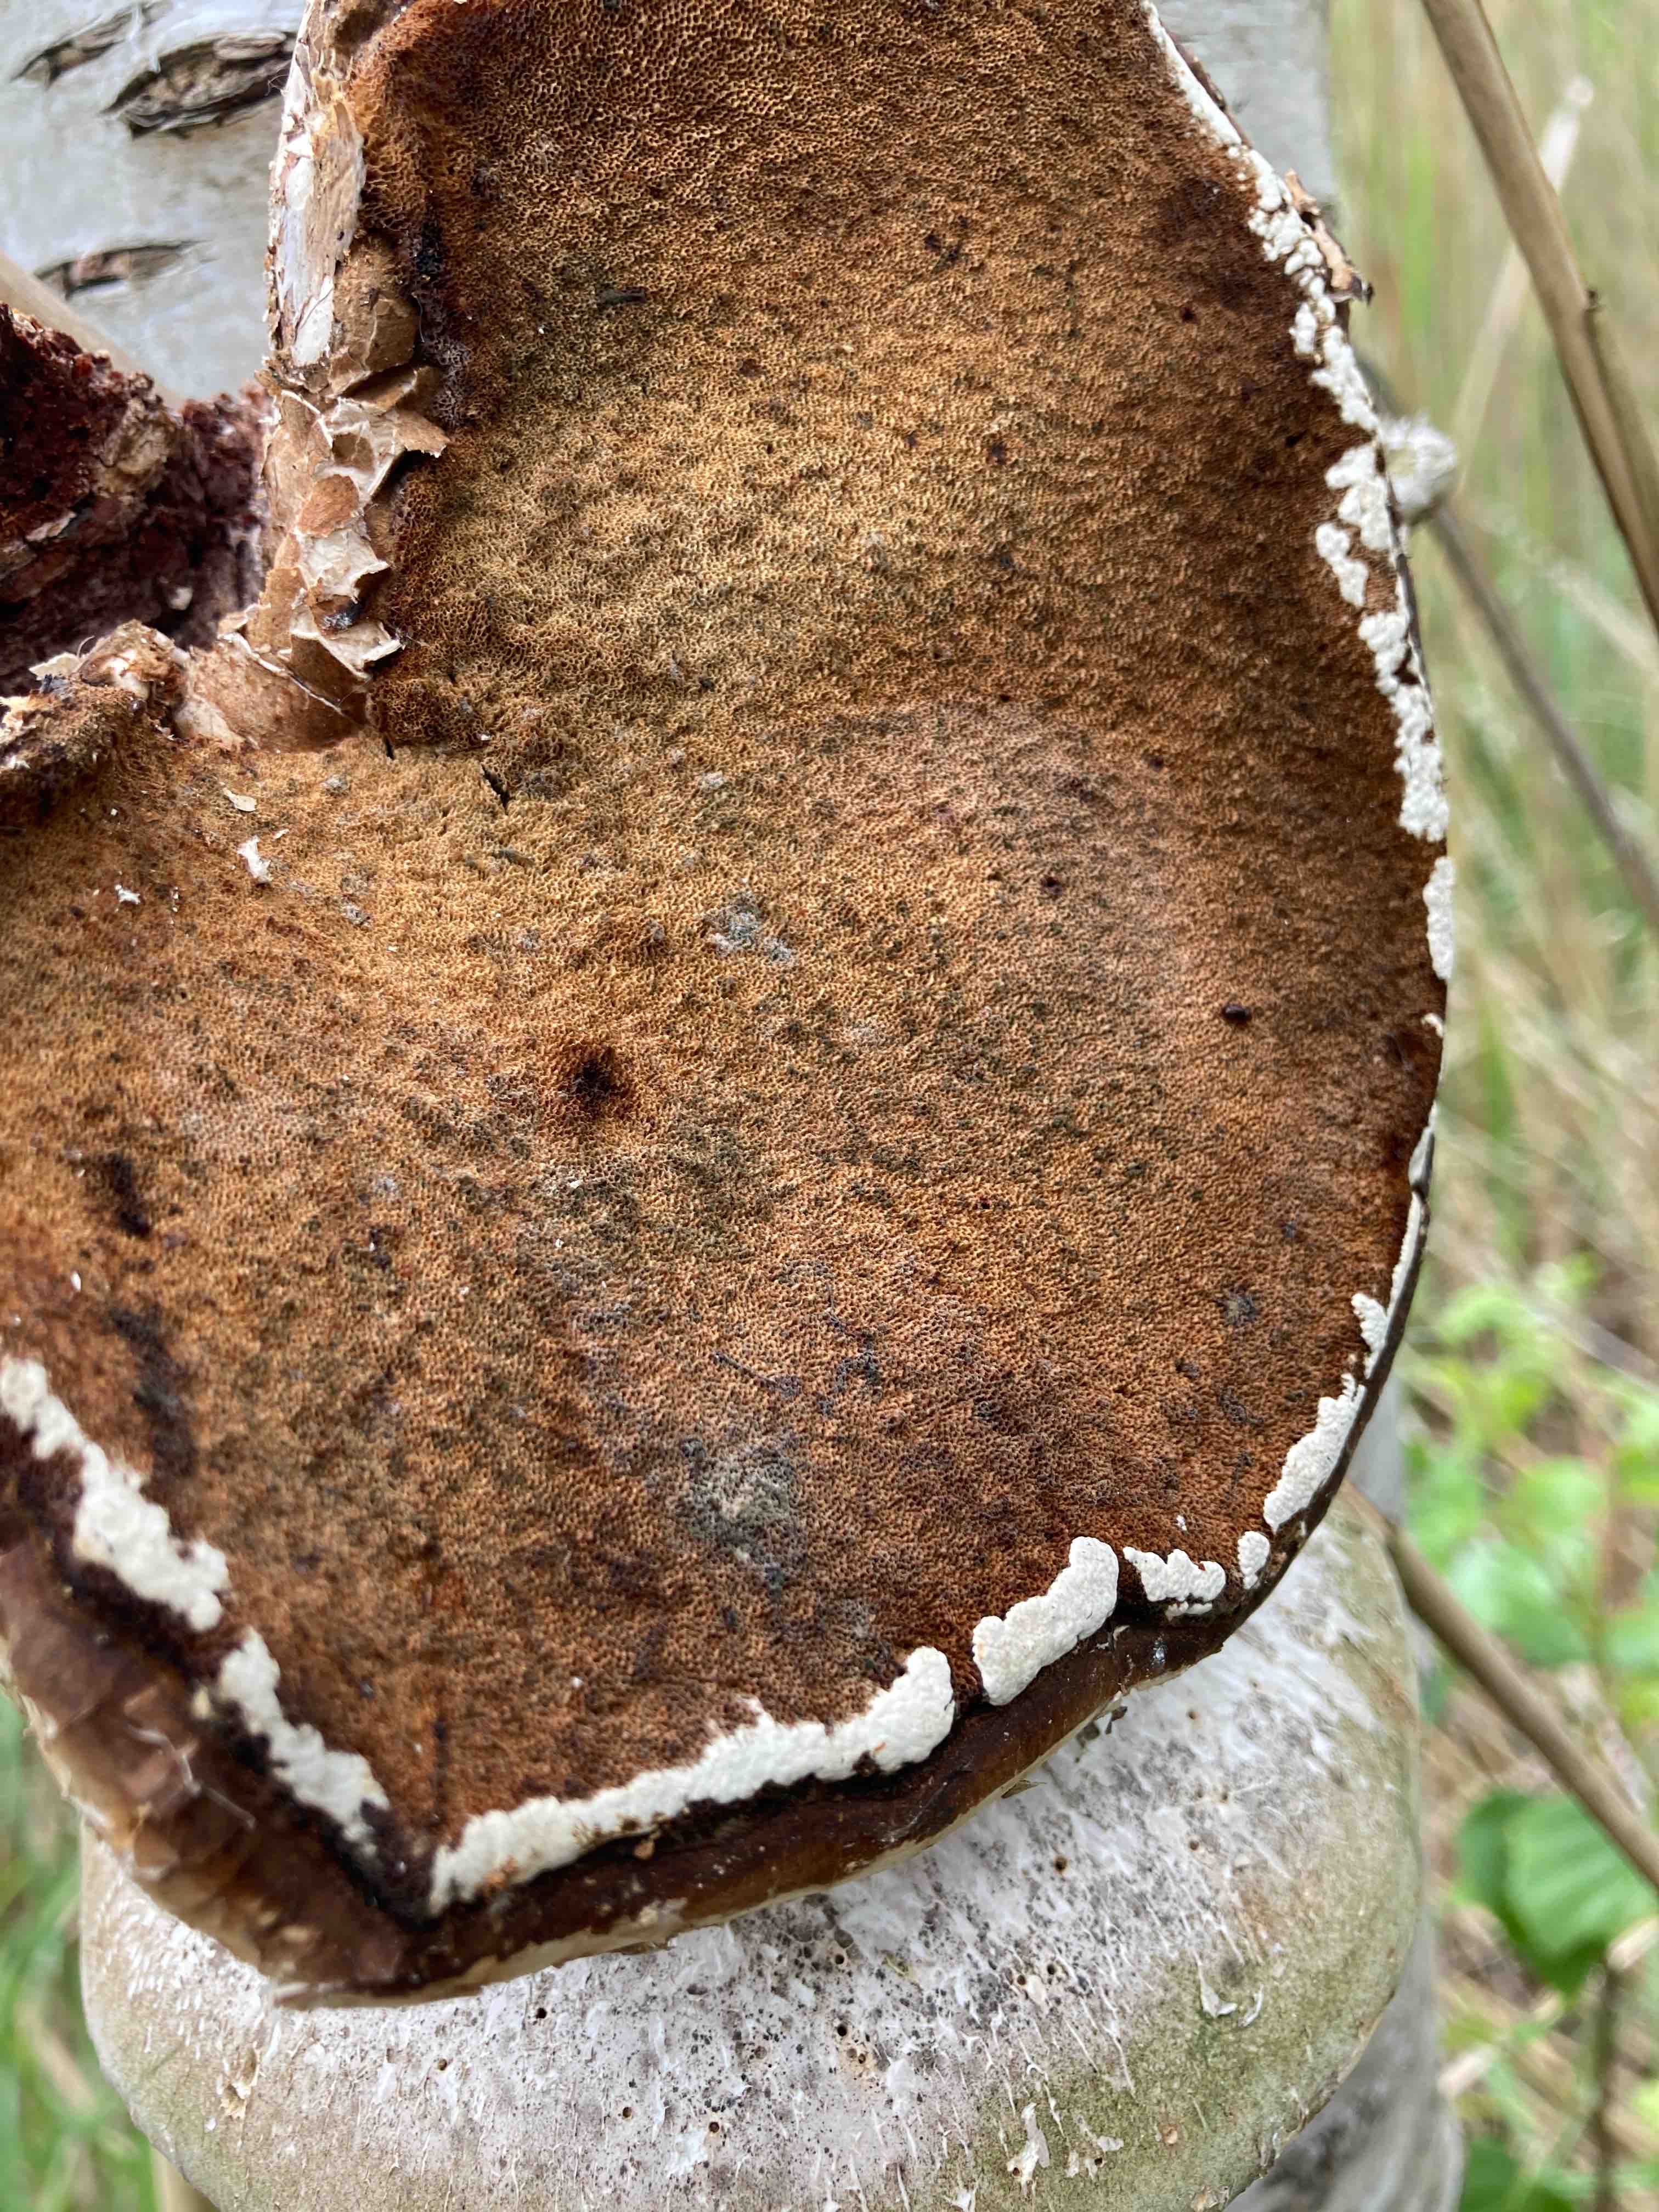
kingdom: Fungi
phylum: Ascomycota
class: Sordariomycetes
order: Hypocreales
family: Hypocreaceae
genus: Trichoderma
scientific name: Trichoderma pulvinatum
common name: snyltende kødkerne
